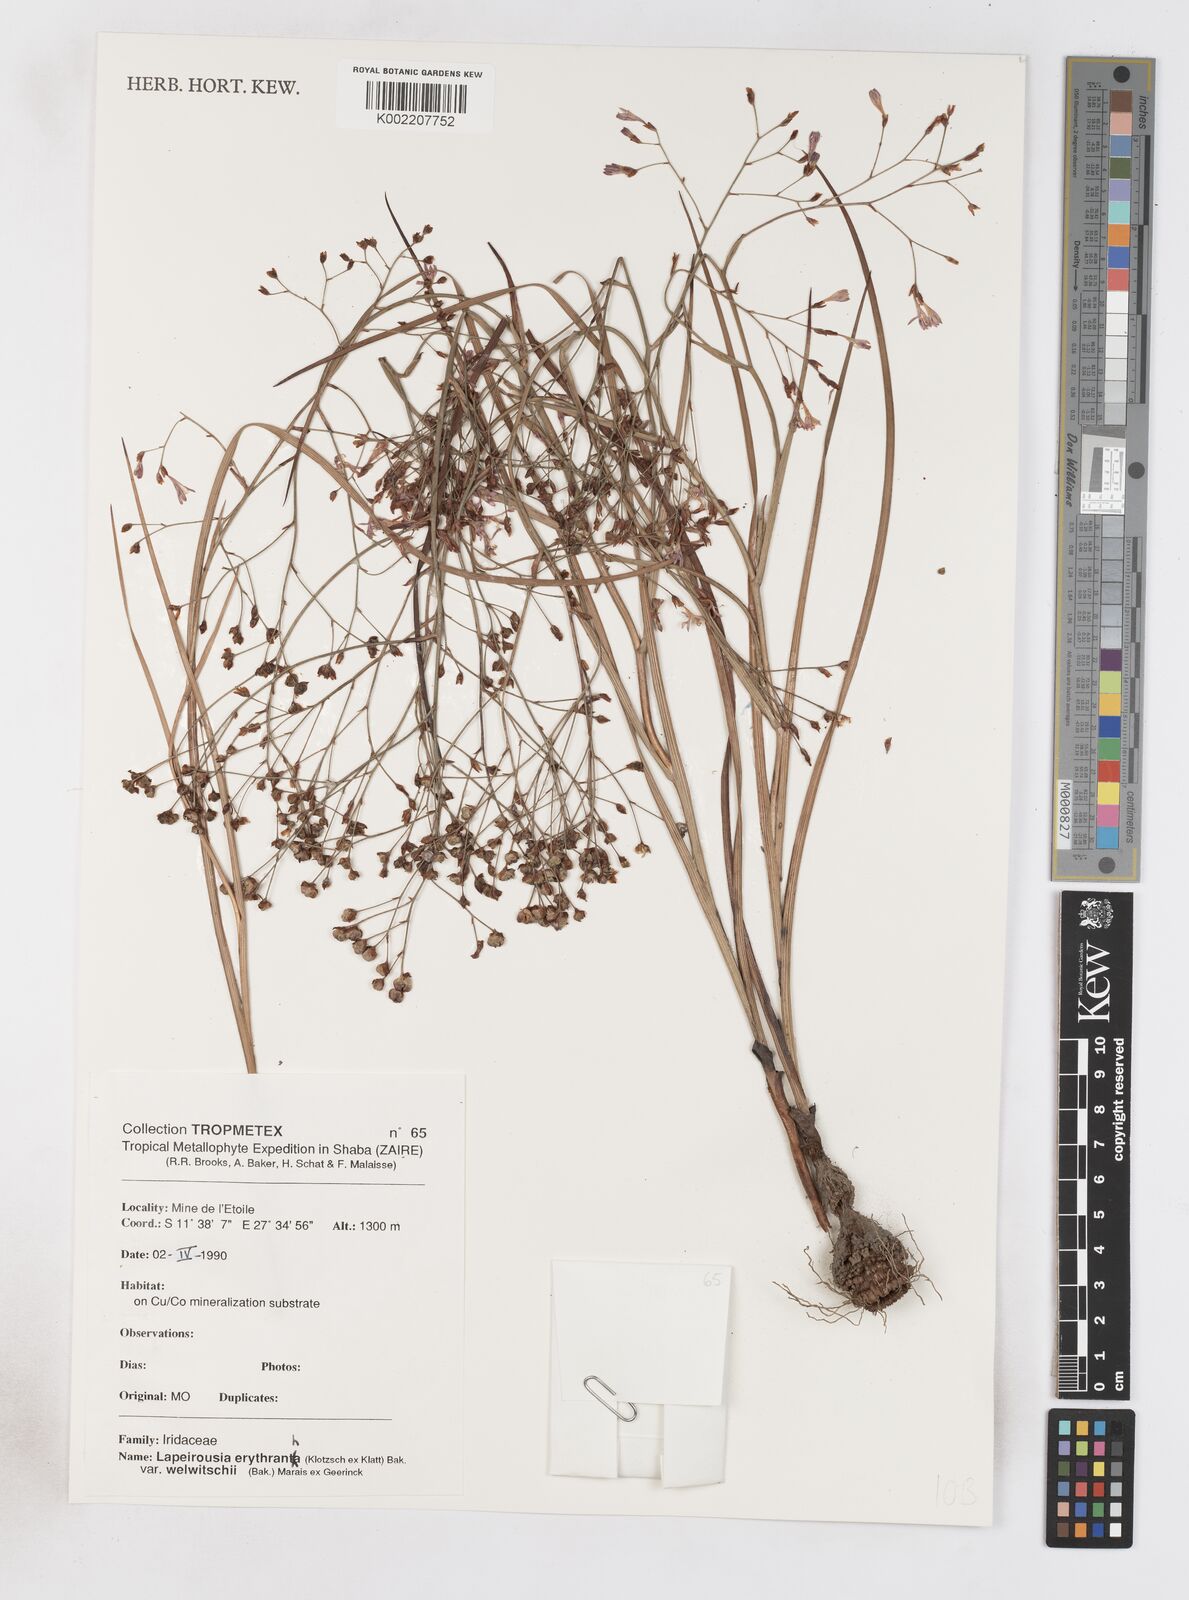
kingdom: Plantae
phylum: Tracheophyta
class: Liliopsida
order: Asparagales
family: Iridaceae
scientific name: Iridaceae
